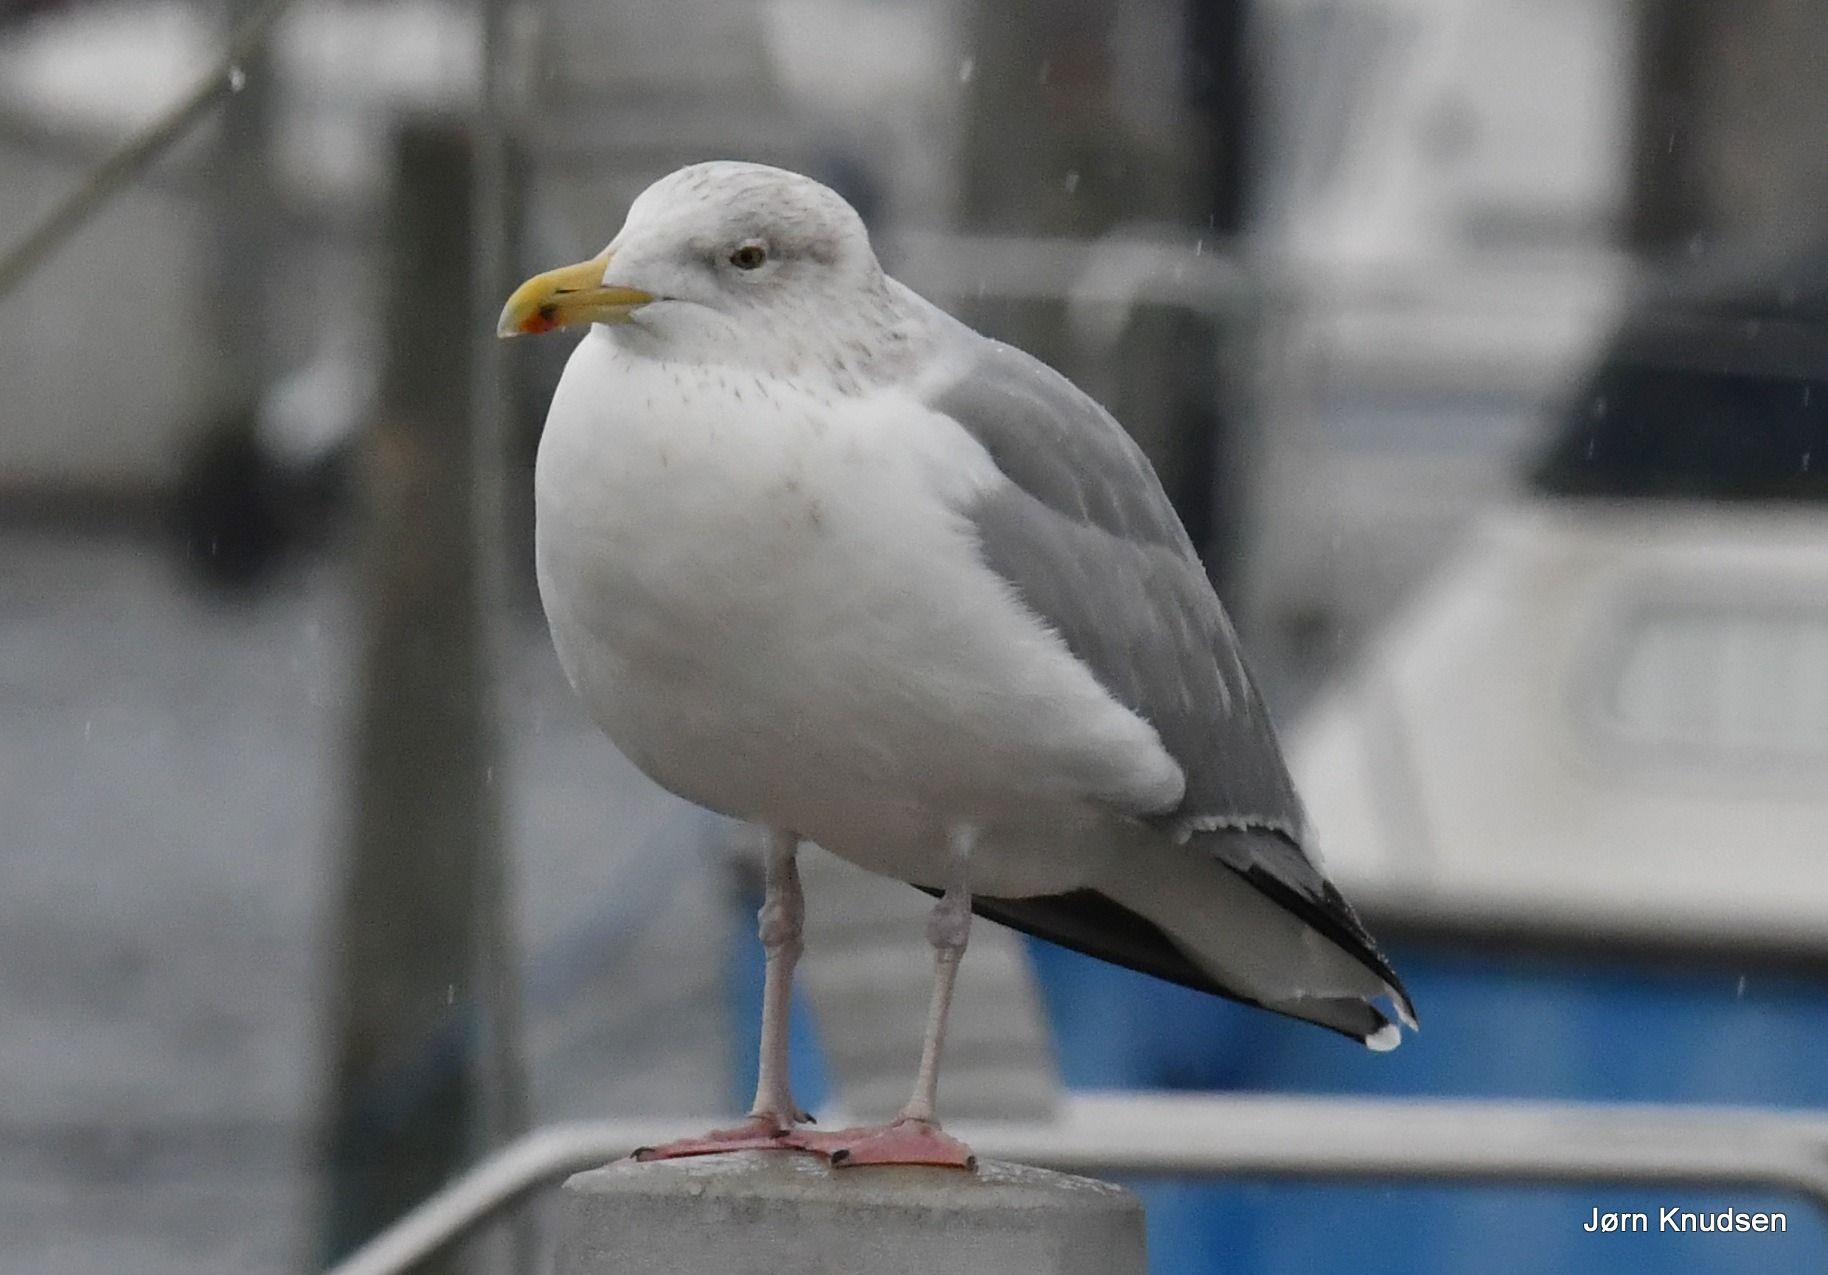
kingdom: Animalia
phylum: Chordata
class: Aves
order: Charadriiformes
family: Laridae
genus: Larus
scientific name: Larus argentatus
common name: Sølvmåge
